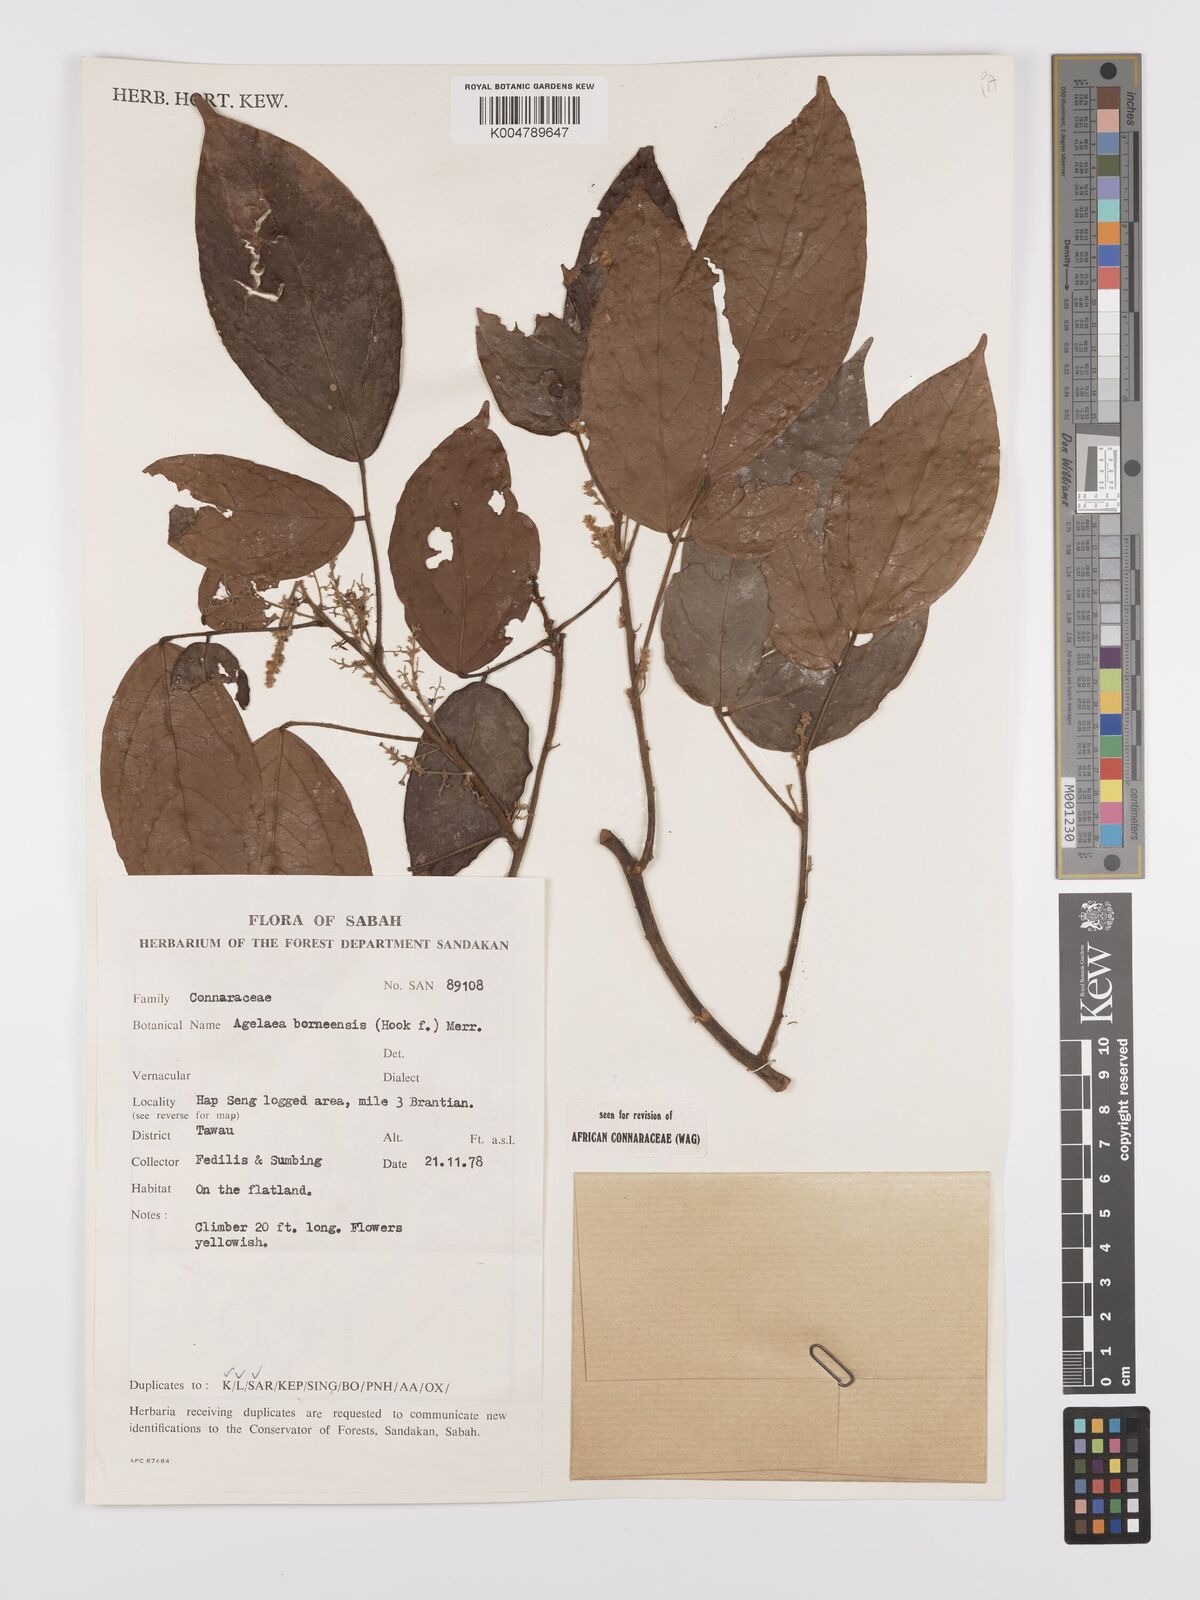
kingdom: Plantae
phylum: Tracheophyta
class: Magnoliopsida
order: Oxalidales
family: Connaraceae
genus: Agelaea
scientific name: Agelaea borneensis
